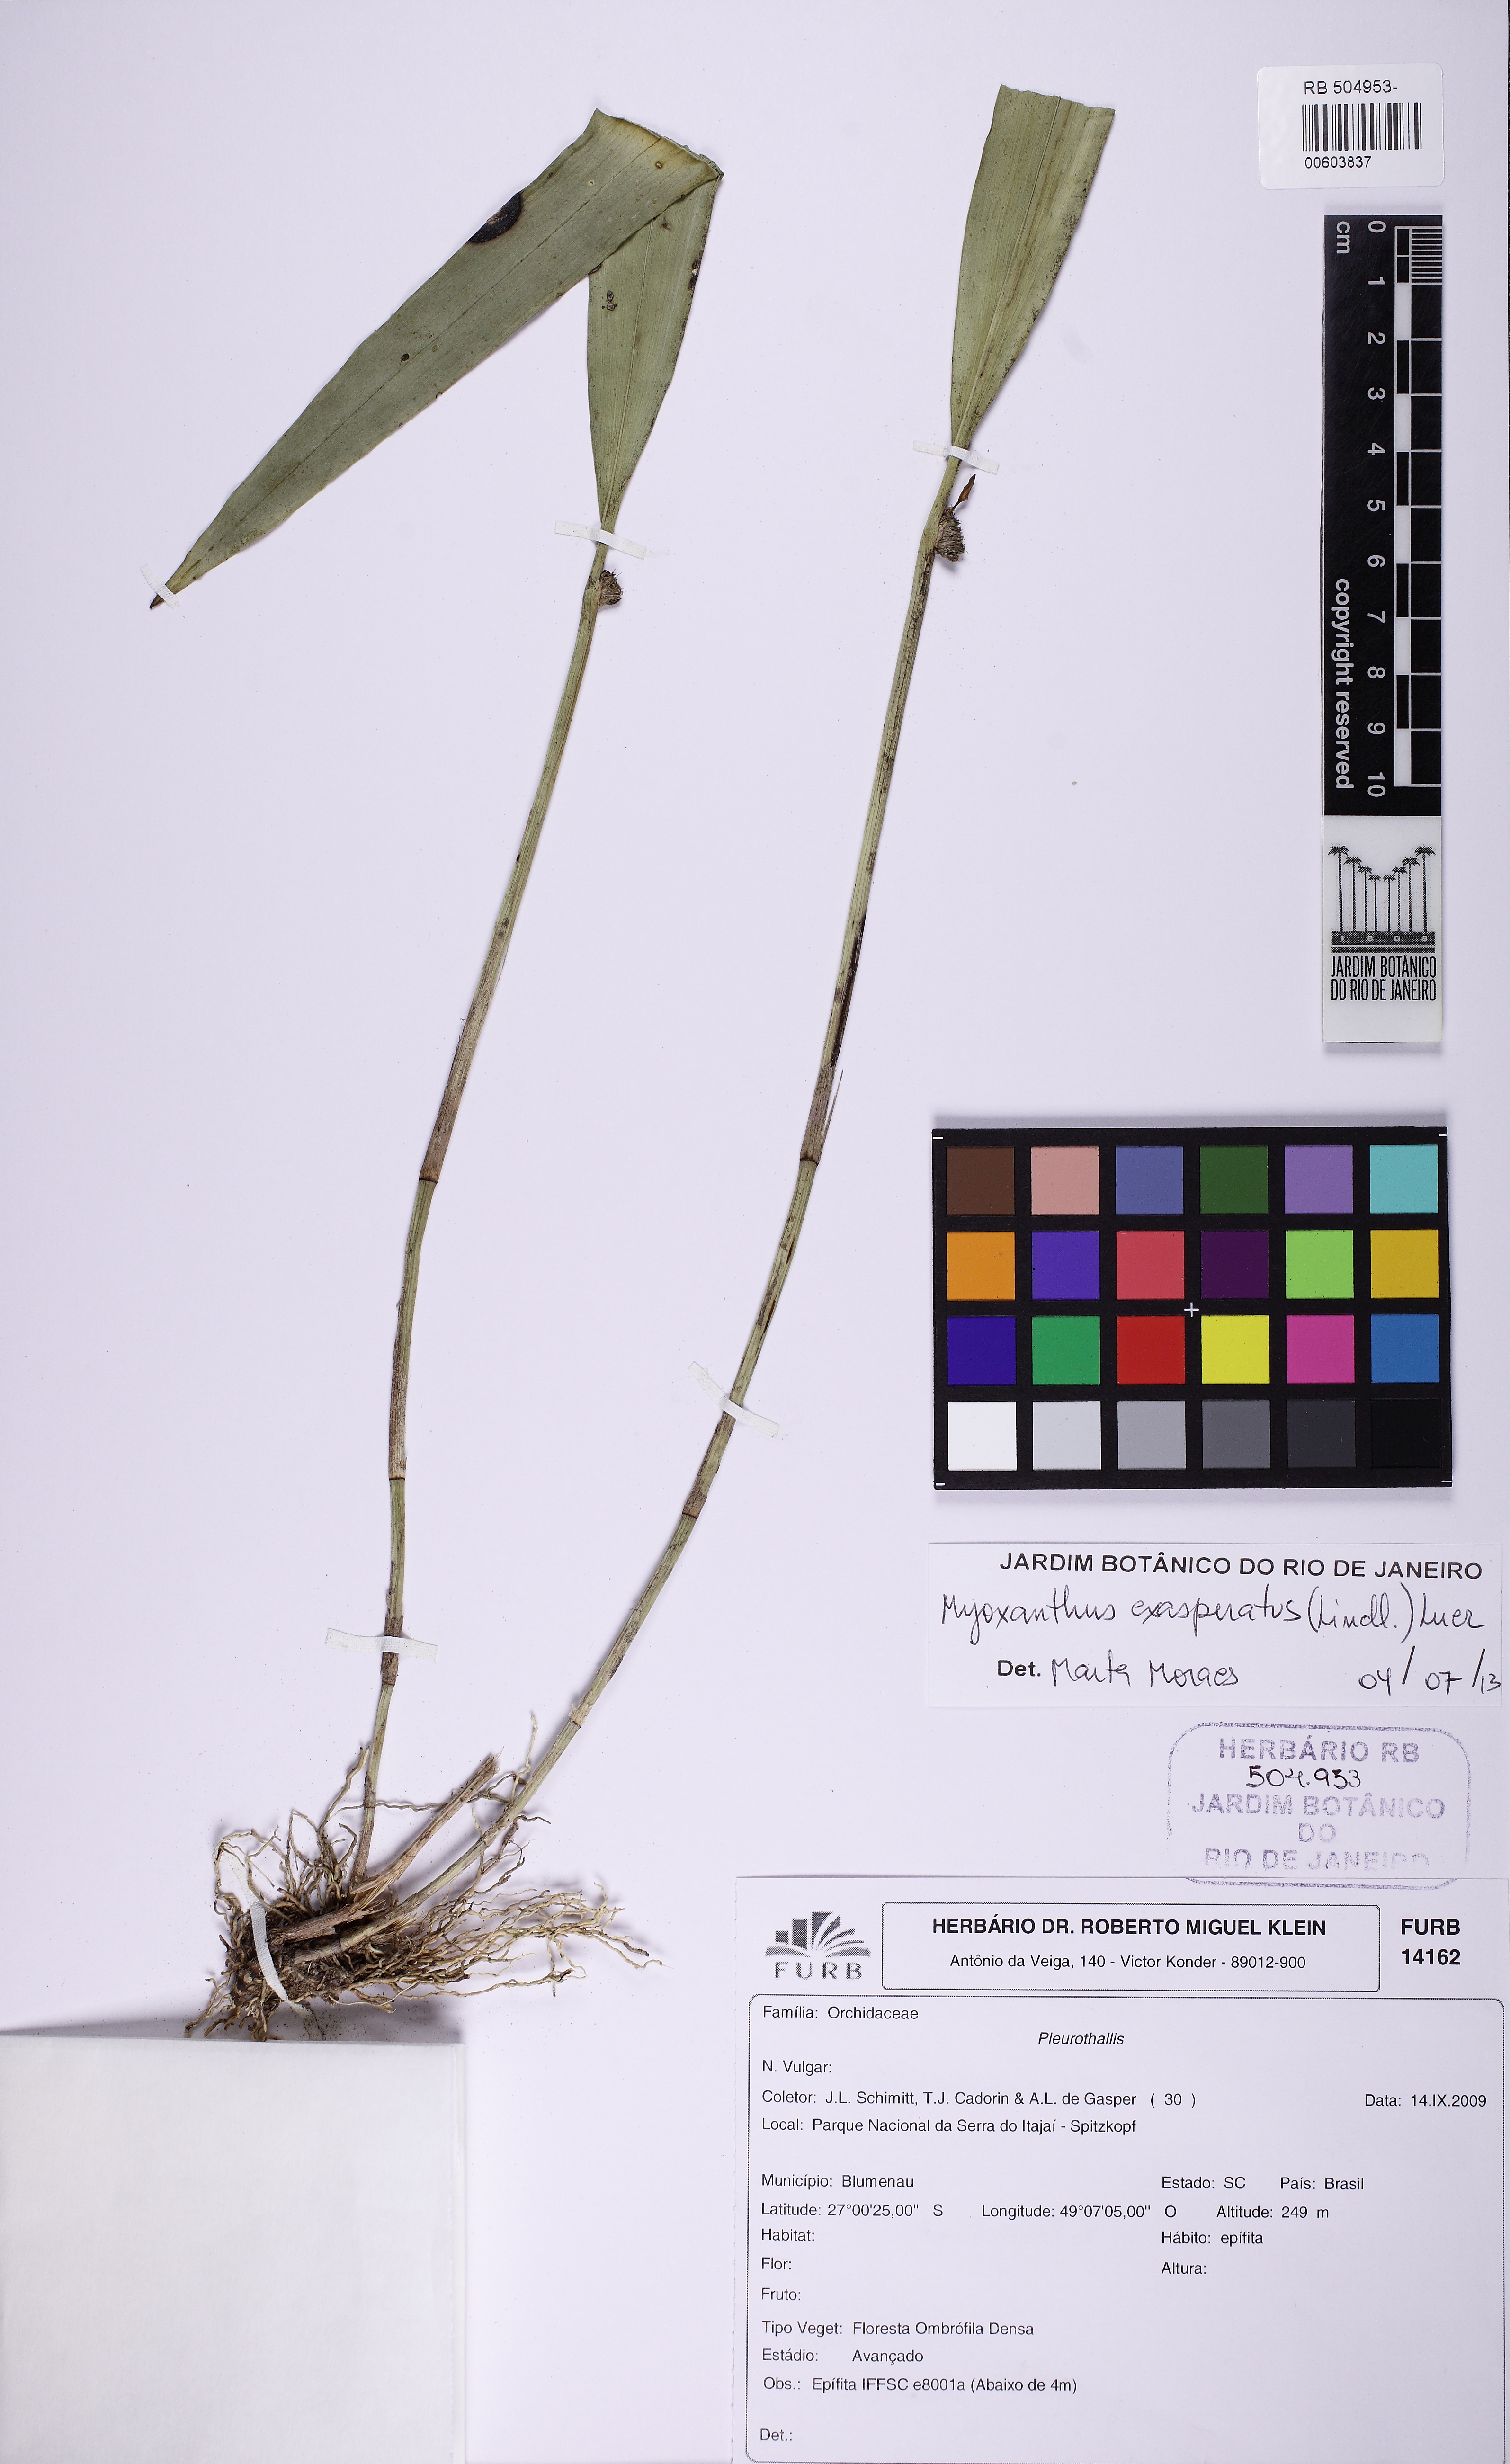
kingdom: Plantae
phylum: Tracheophyta
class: Liliopsida
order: Asparagales
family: Orchidaceae
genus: Myoxanthus
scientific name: Myoxanthus exasperatus
